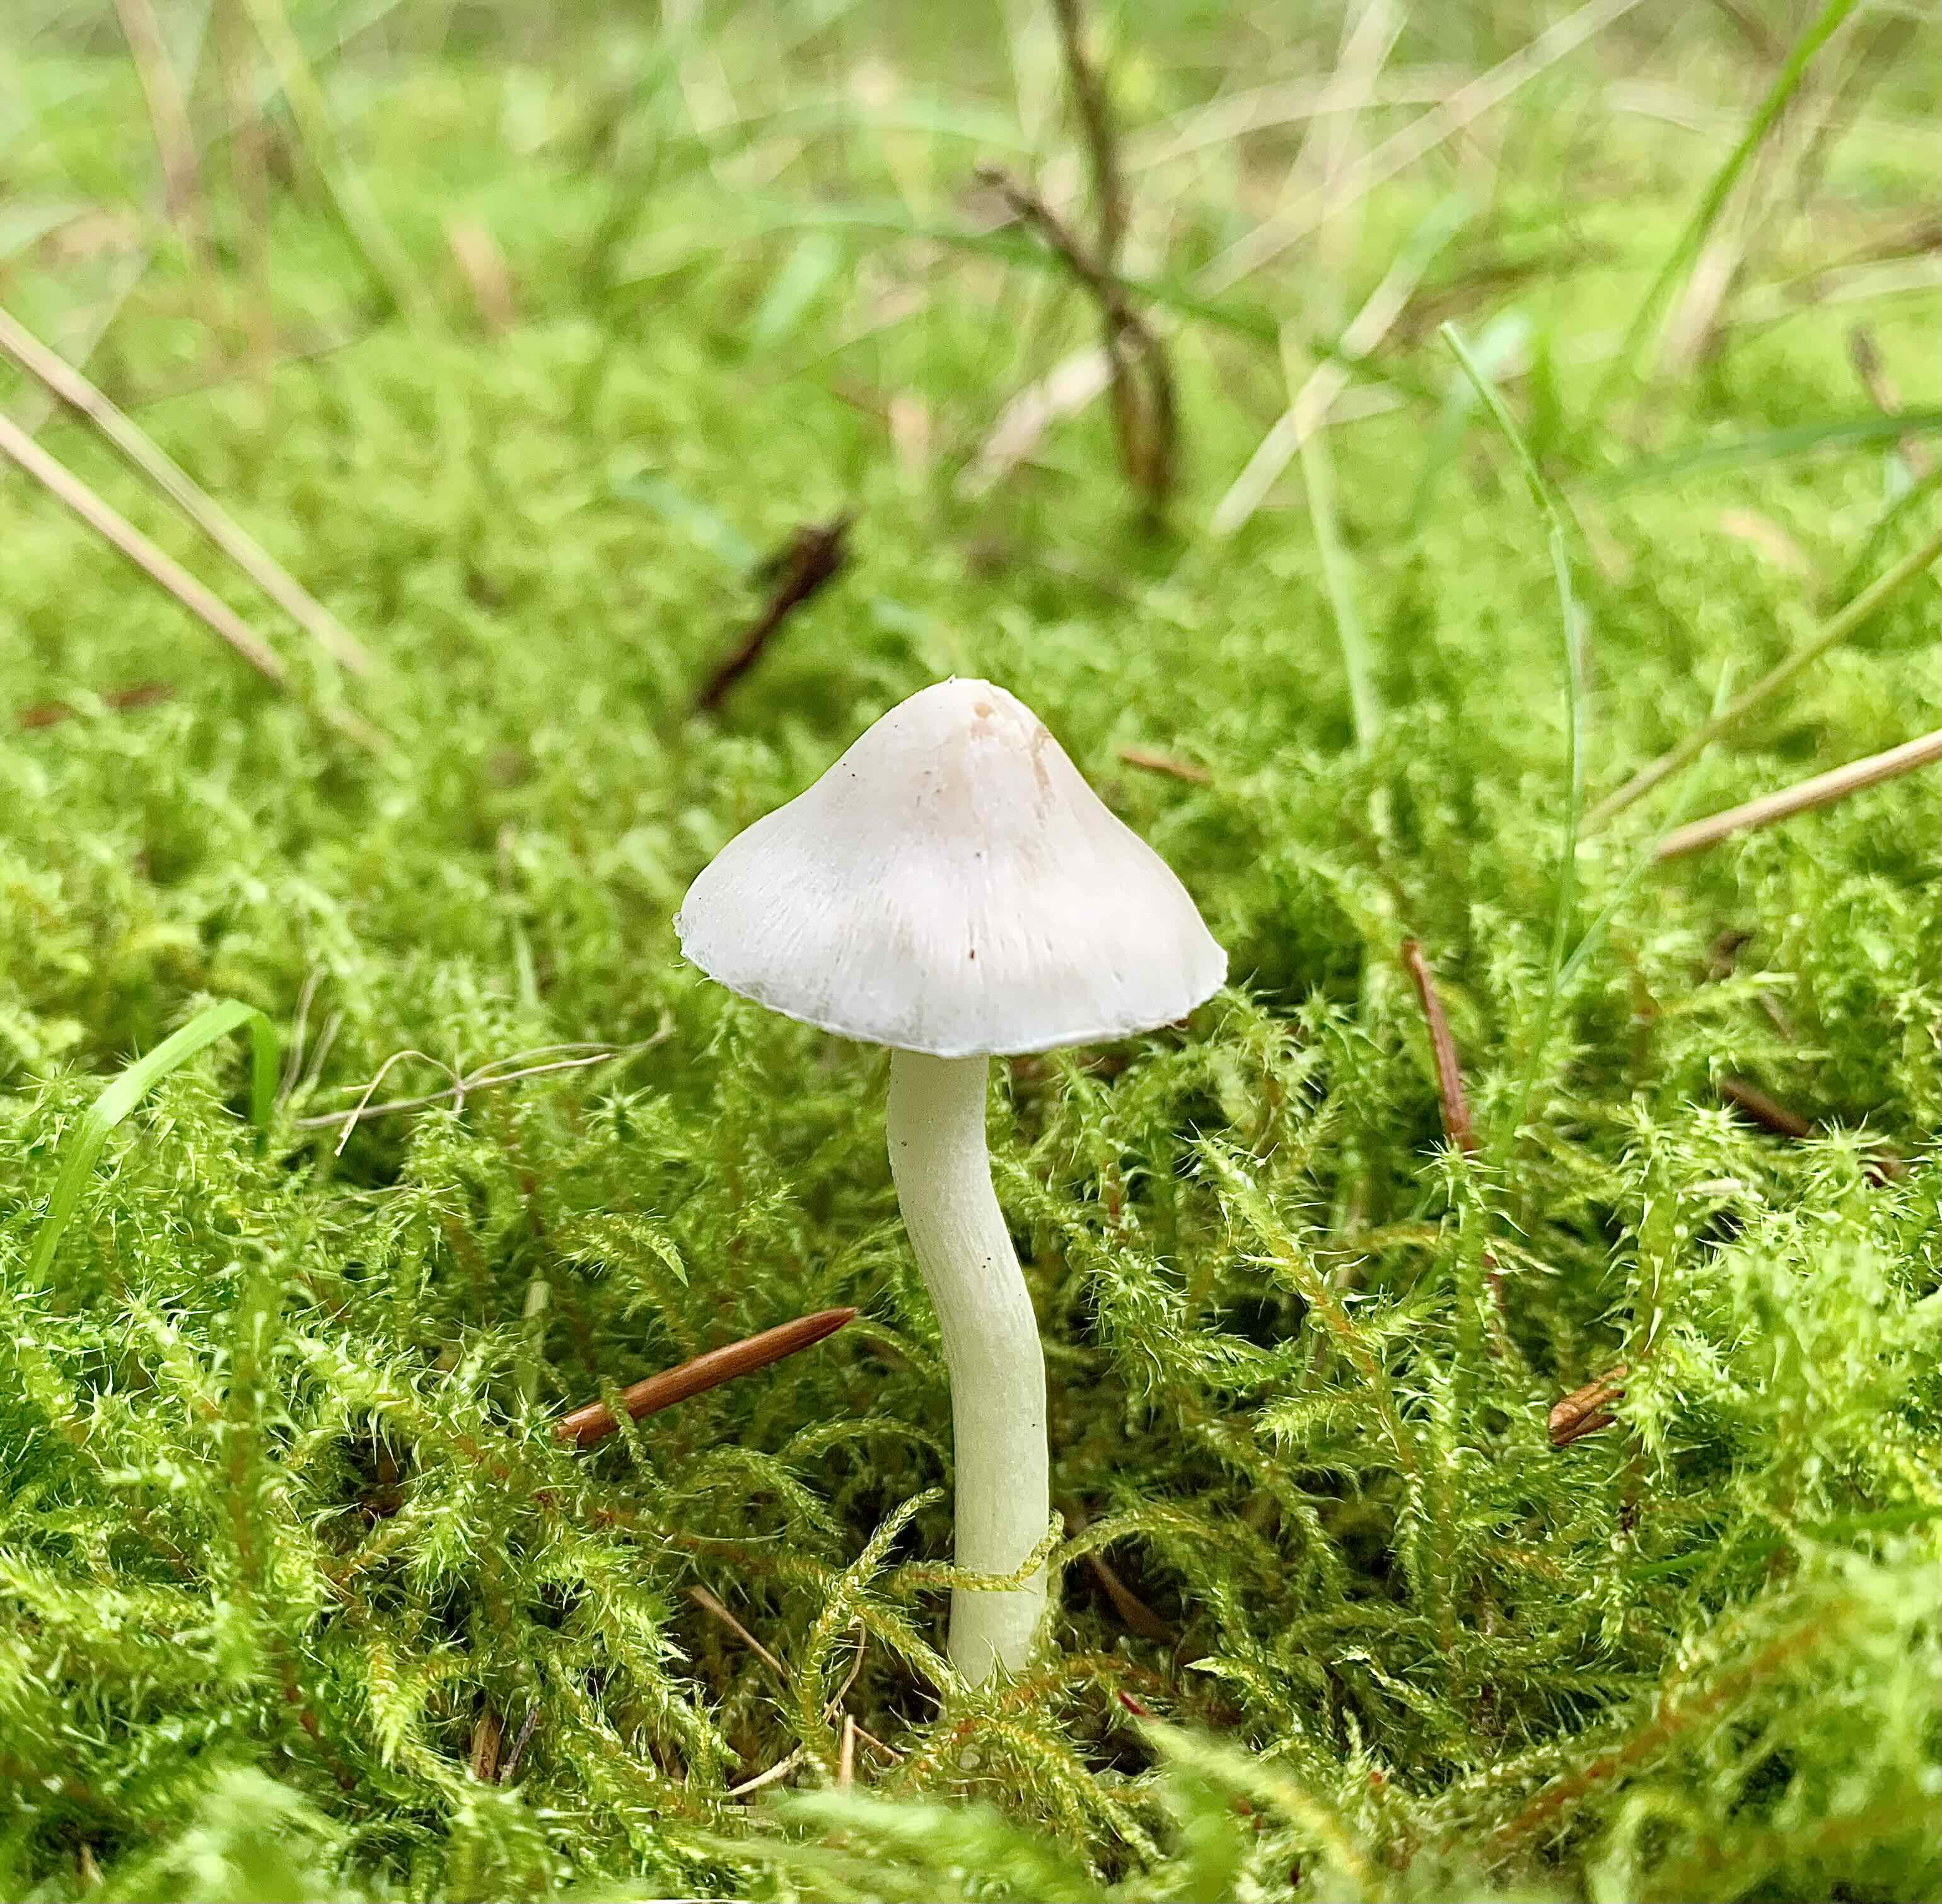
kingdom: Fungi
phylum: Basidiomycota
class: Agaricomycetes
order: Agaricales
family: Inocybaceae
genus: Inocybe
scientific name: Inocybe
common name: almindelig trævlhat
